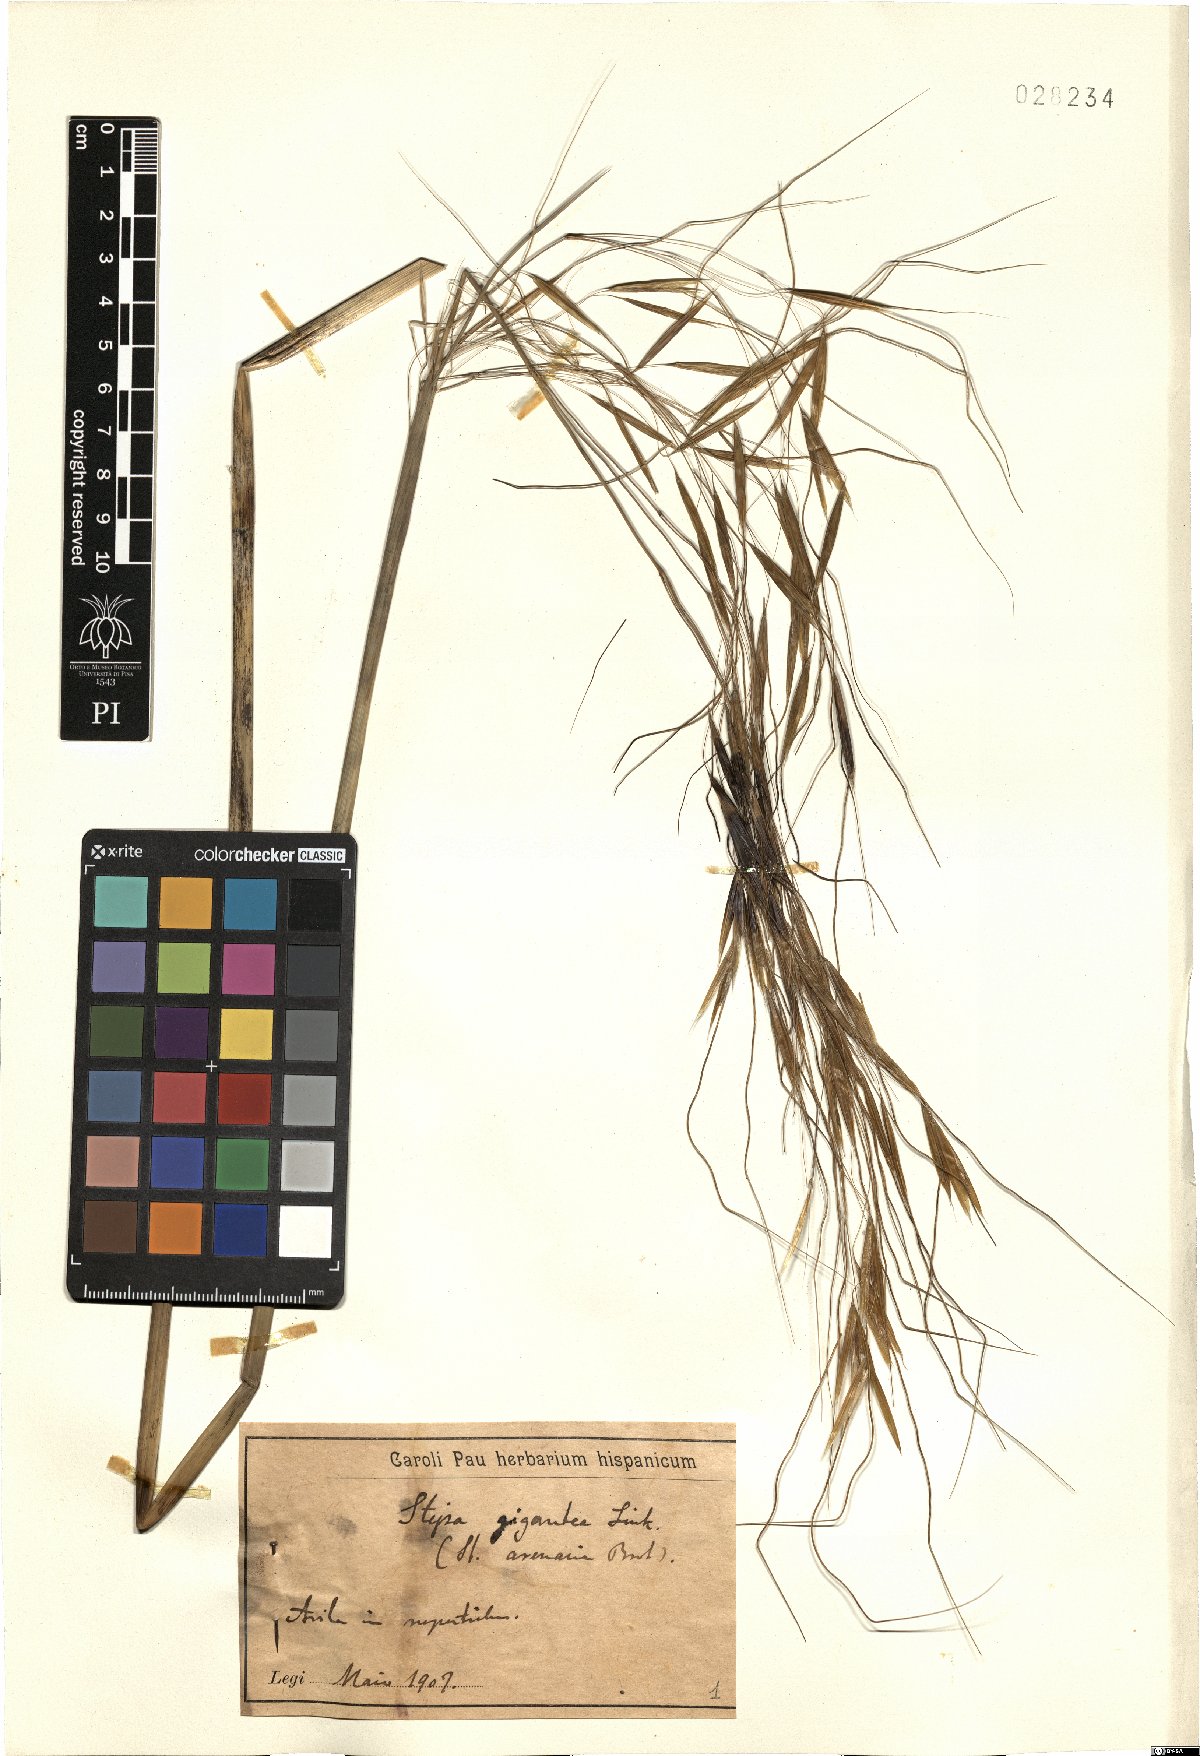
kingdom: Plantae
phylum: Tracheophyta
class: Liliopsida
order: Poales
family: Poaceae
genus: Celtica
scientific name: Celtica gigantea
